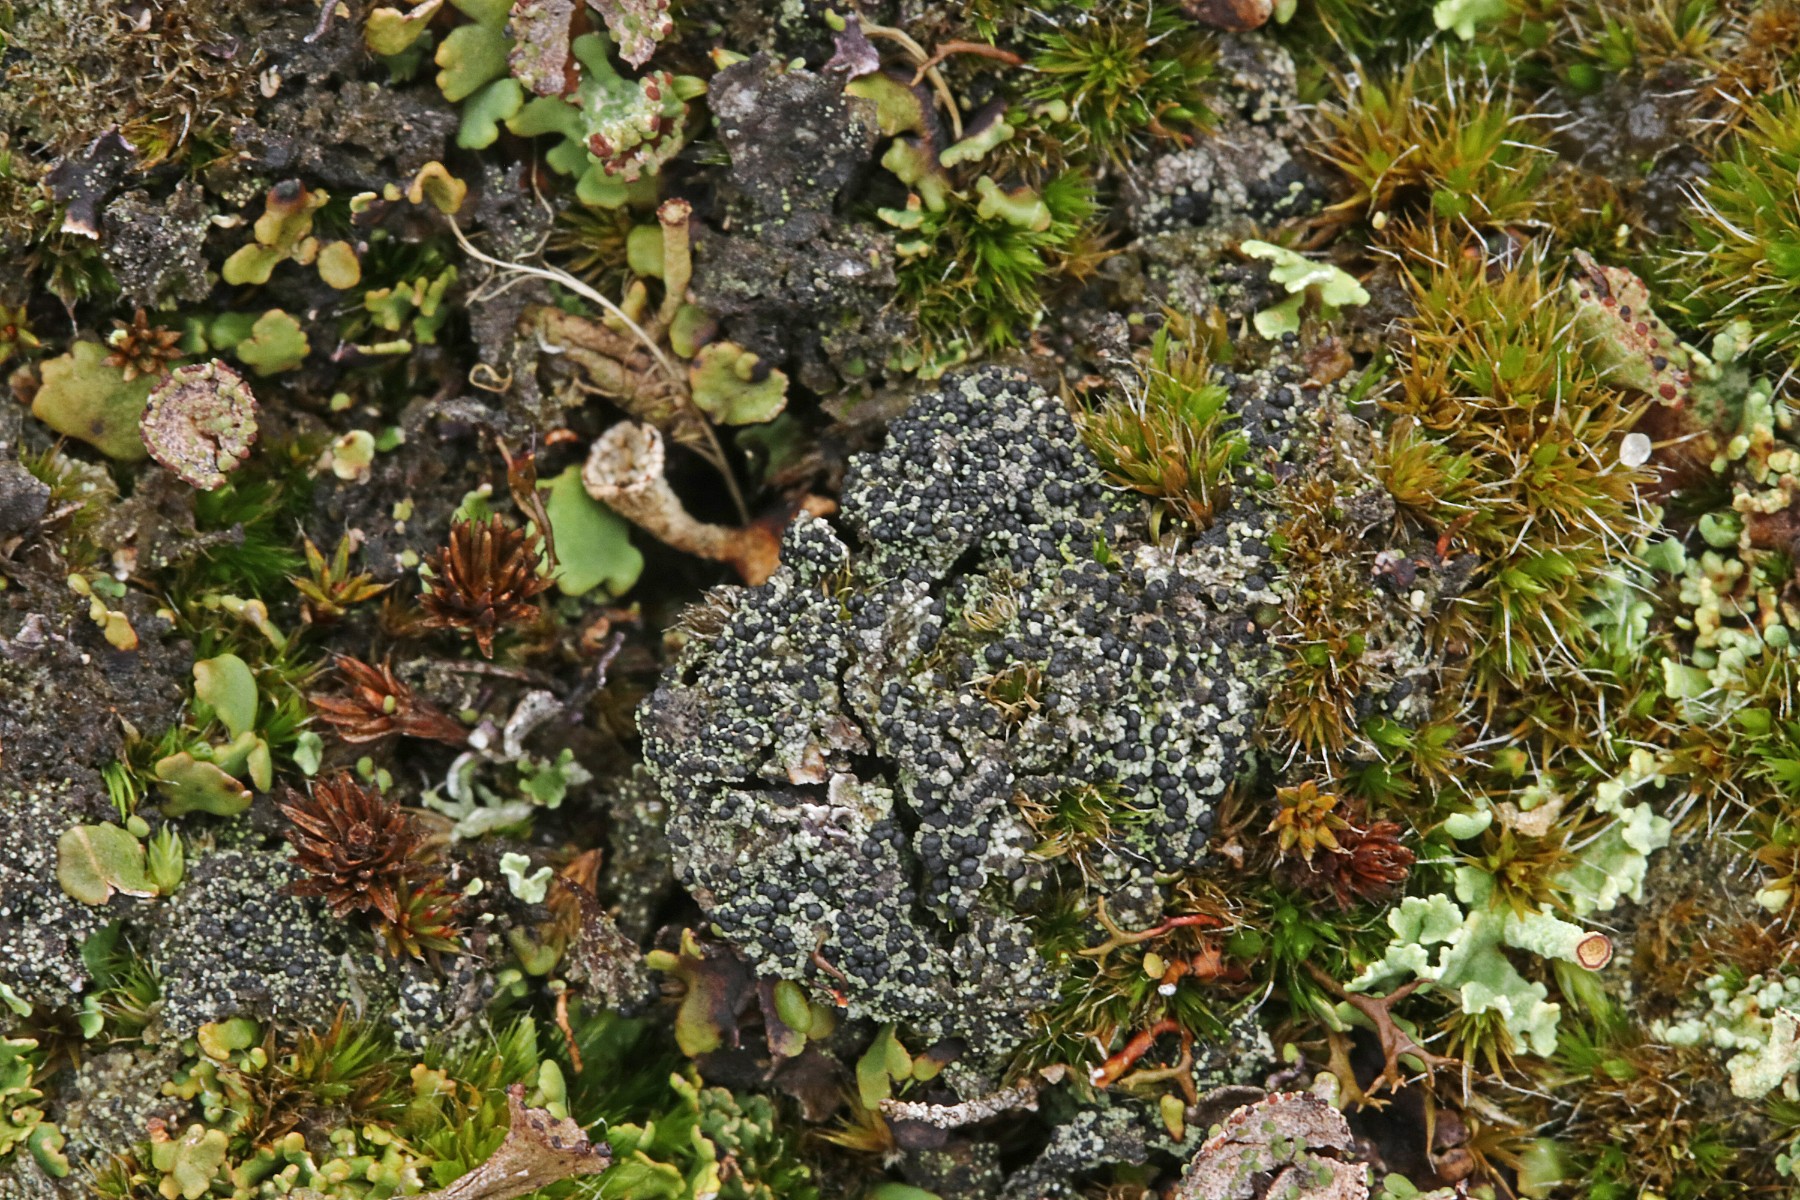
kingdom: Fungi
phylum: Ascomycota
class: Lecanoromycetes
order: Lecanorales
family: Byssolomataceae
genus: Micarea
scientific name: Micarea lignaria
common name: tørve-knaplav
